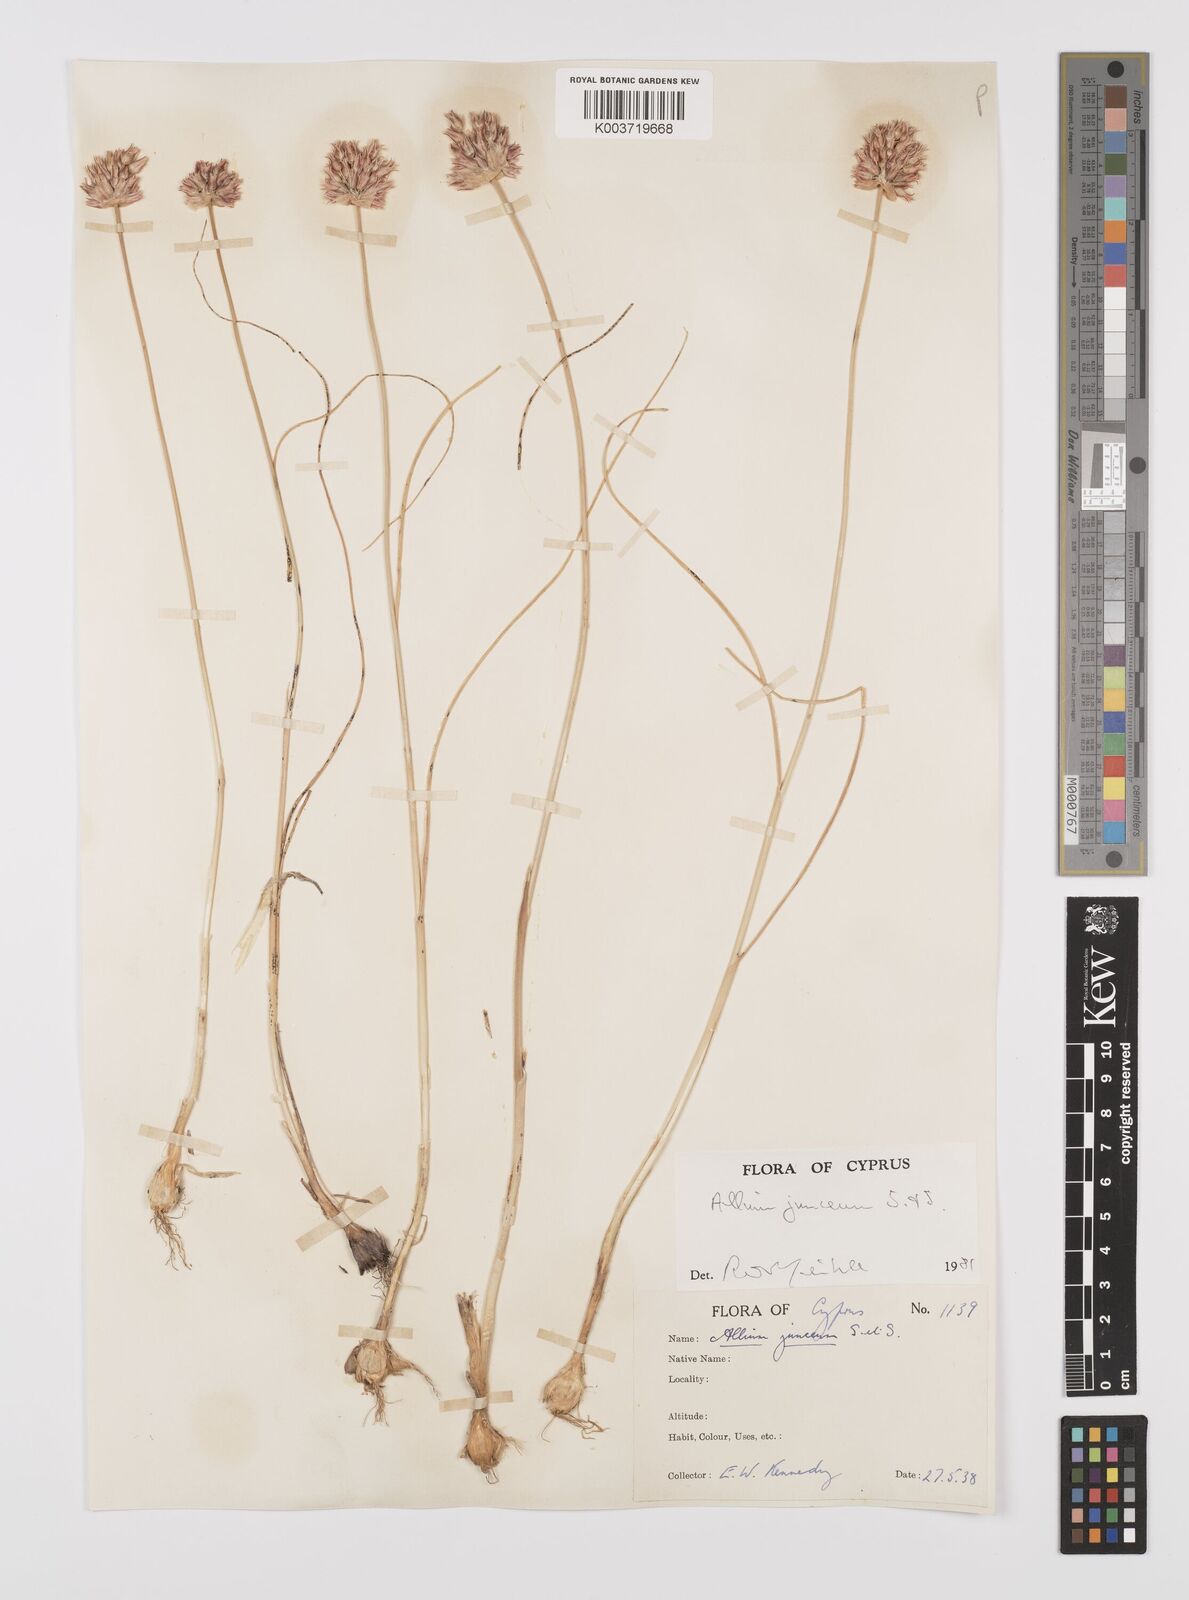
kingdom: Plantae
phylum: Tracheophyta
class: Liliopsida
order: Asparagales
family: Amaryllidaceae
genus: Allium
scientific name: Allium junceum
